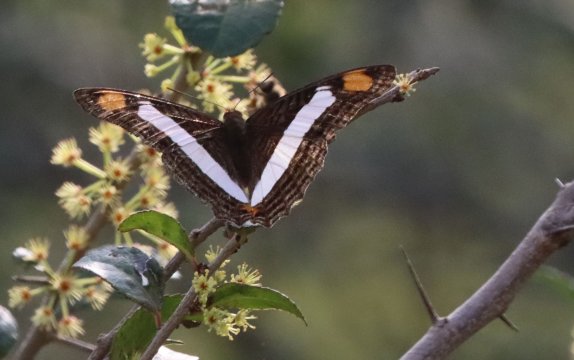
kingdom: Animalia
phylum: Arthropoda
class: Insecta
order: Lepidoptera
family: Nymphalidae
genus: Limenitis
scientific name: Limenitis Adelpha basiloides
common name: Spot-celled Sister
